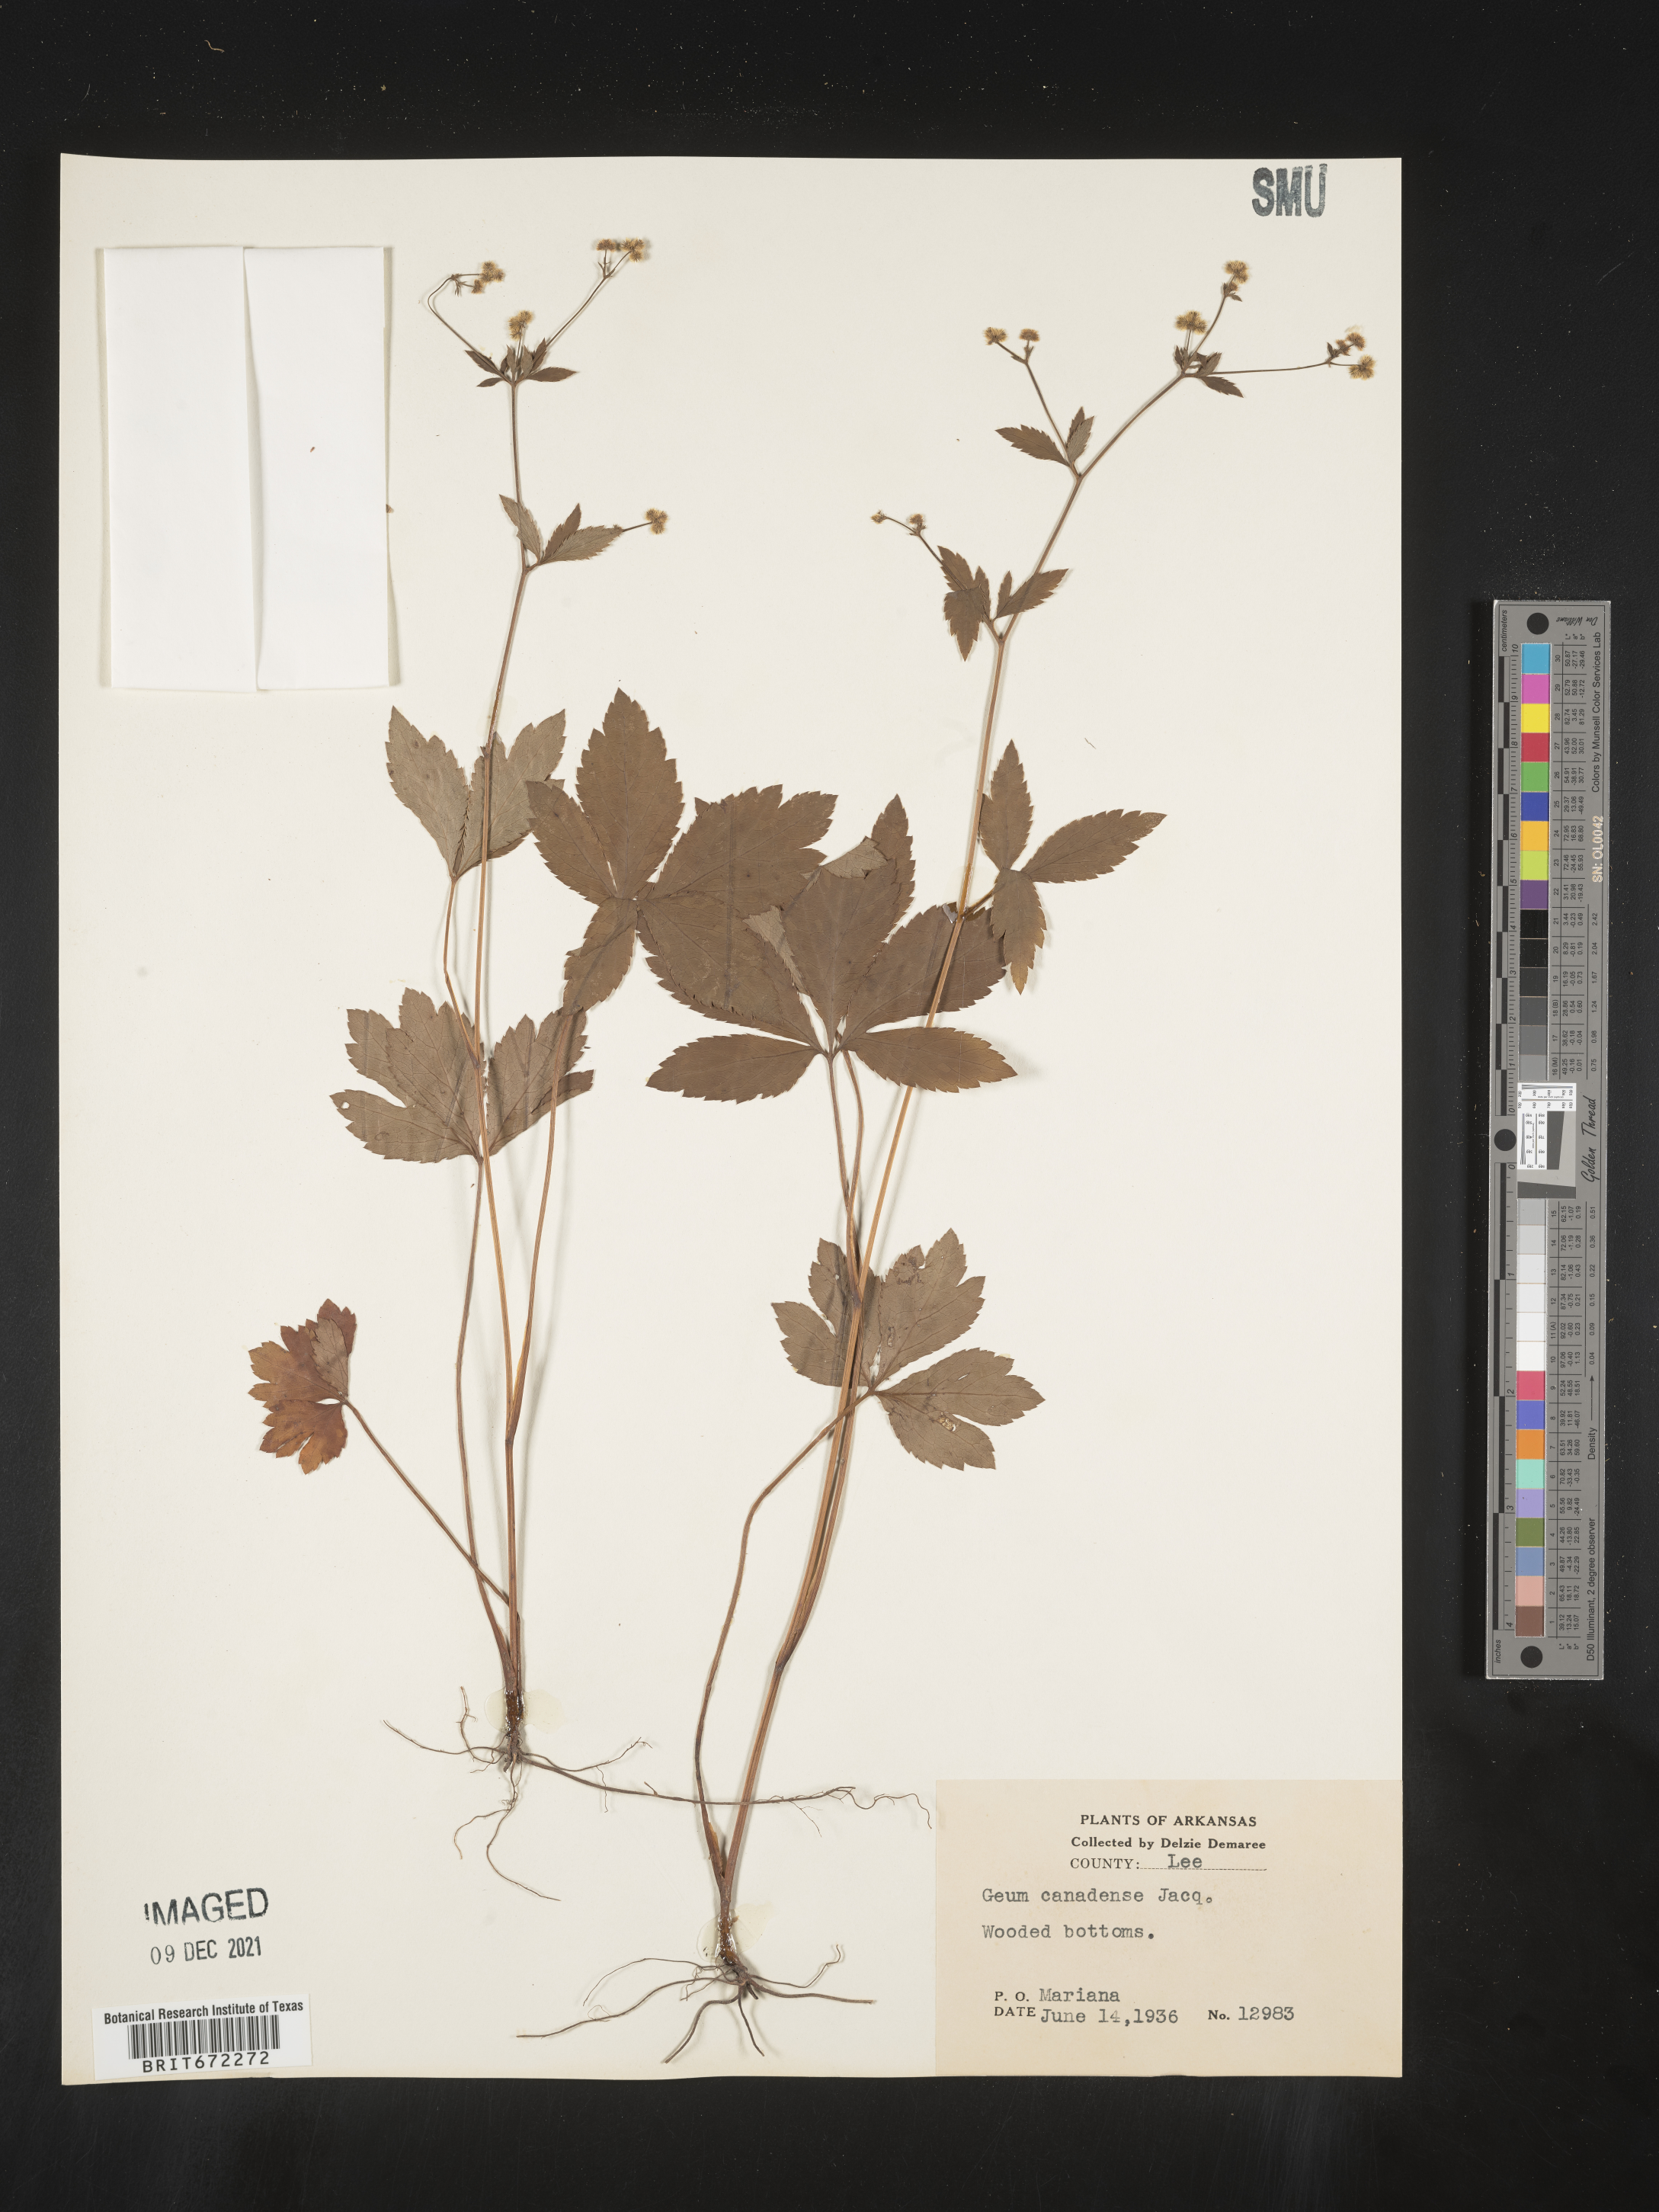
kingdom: Plantae
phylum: Tracheophyta
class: Magnoliopsida
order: Apiales
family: Apiaceae
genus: Sanicula
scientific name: Sanicula
